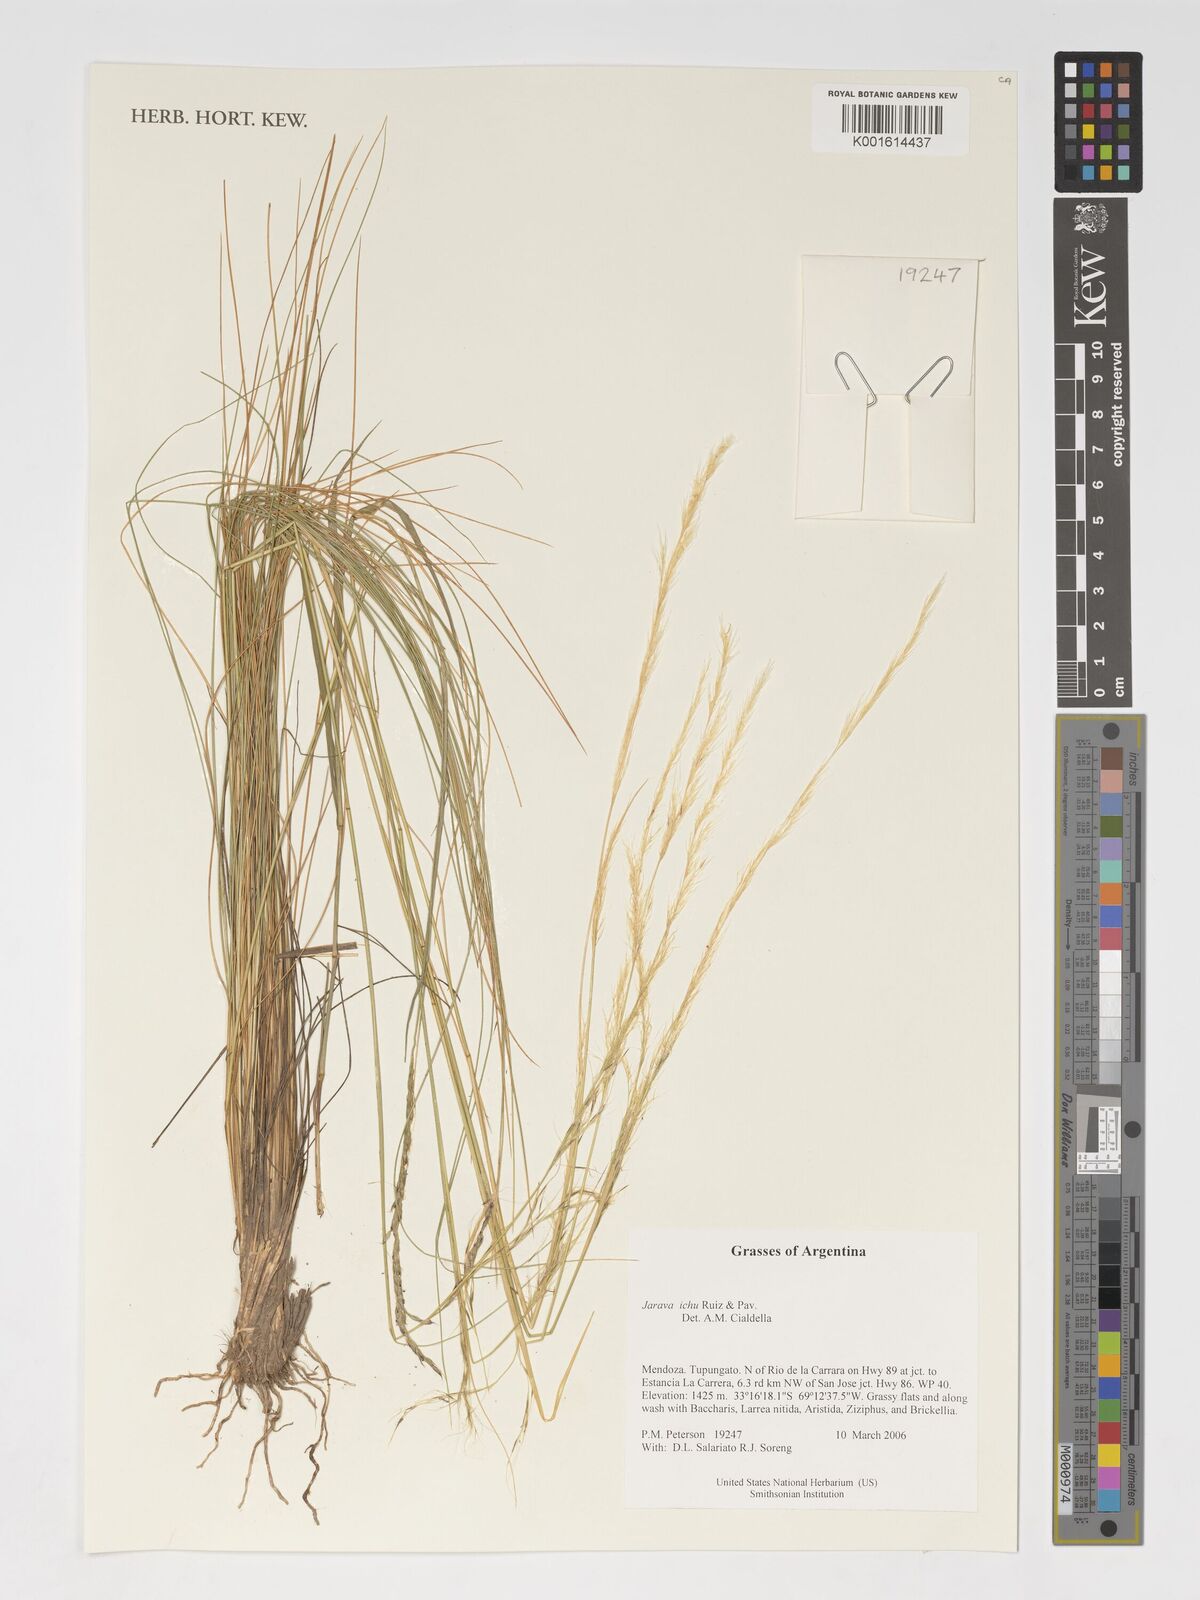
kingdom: Plantae
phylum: Tracheophyta
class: Liliopsida
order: Poales
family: Poaceae
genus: Jarava
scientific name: Jarava ichu
